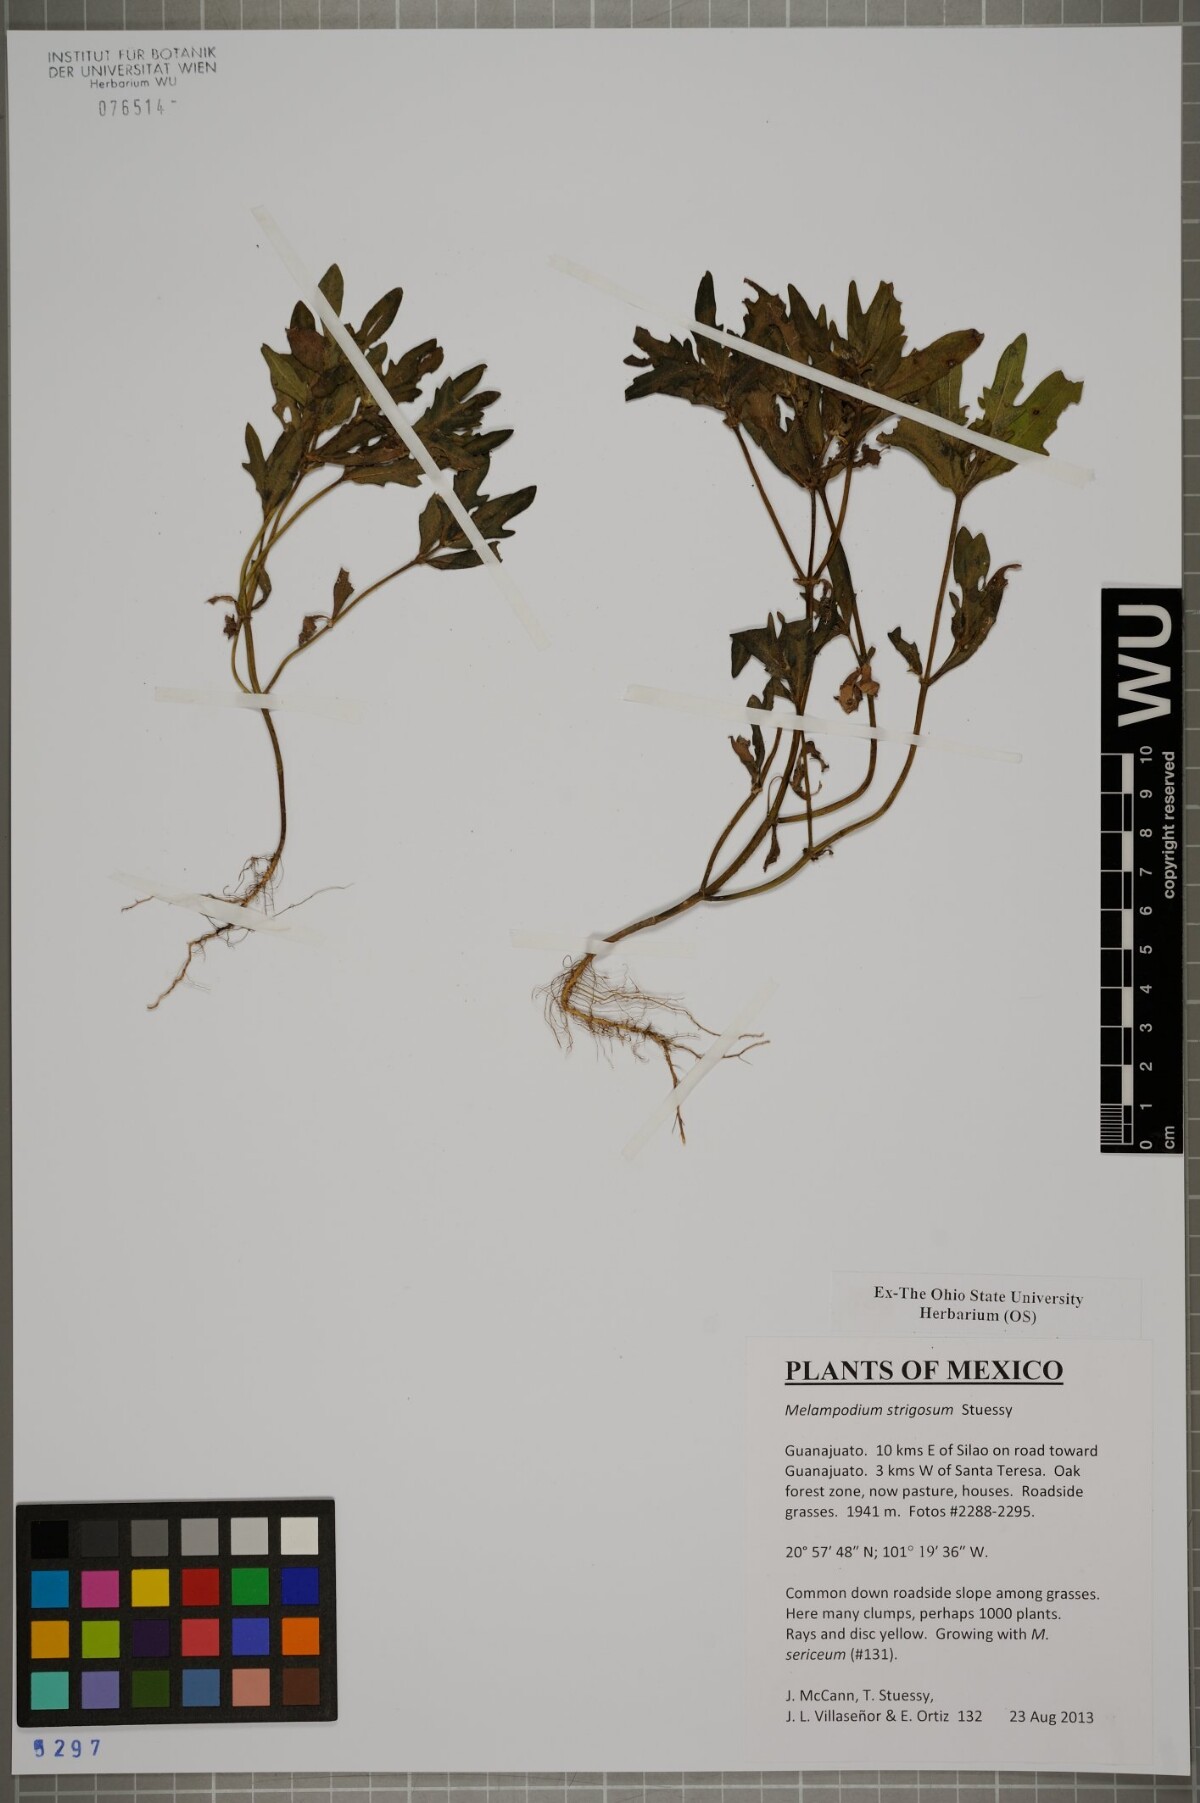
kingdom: Plantae
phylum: Tracheophyta
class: Magnoliopsida
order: Asterales
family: Asteraceae
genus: Melampodium
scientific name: Melampodium strigosum
